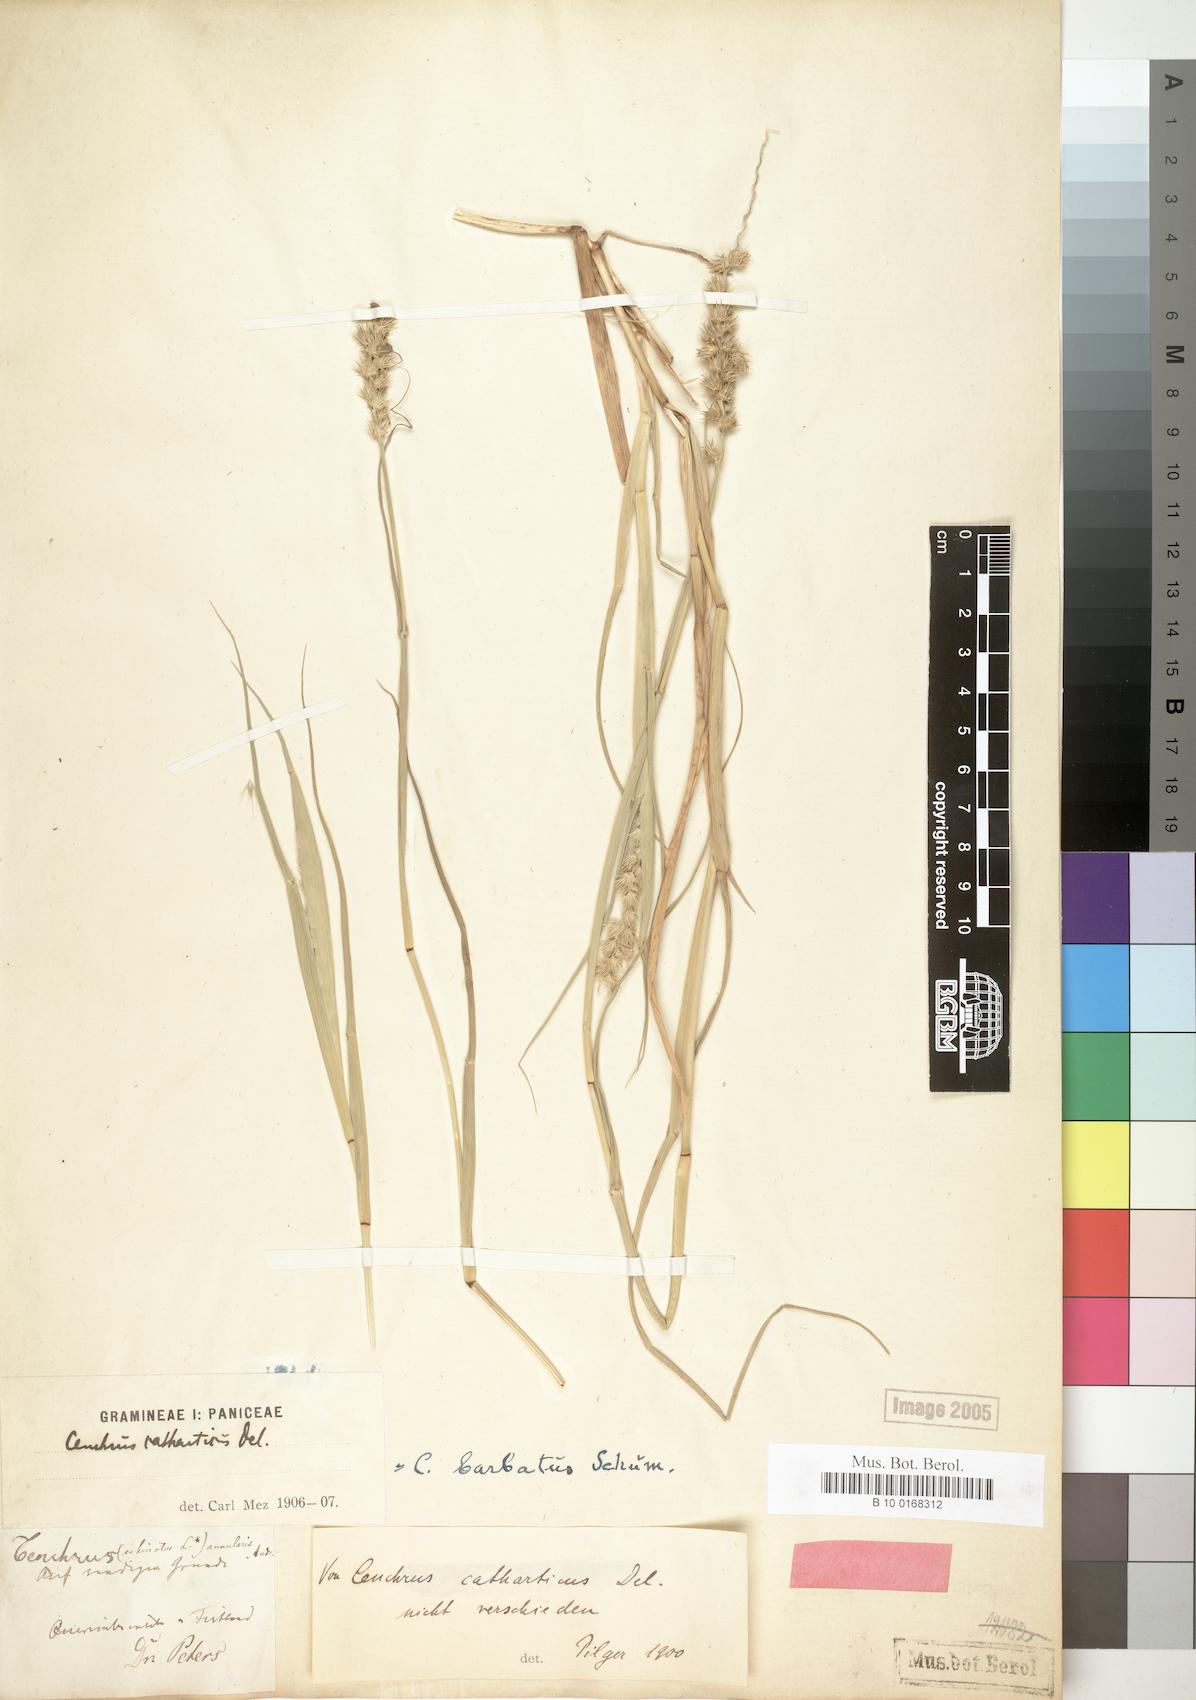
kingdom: Plantae
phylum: Tracheophyta
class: Liliopsida
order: Poales
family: Poaceae
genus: Cenchrus
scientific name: Cenchrus biflorus
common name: Indian sandbur
